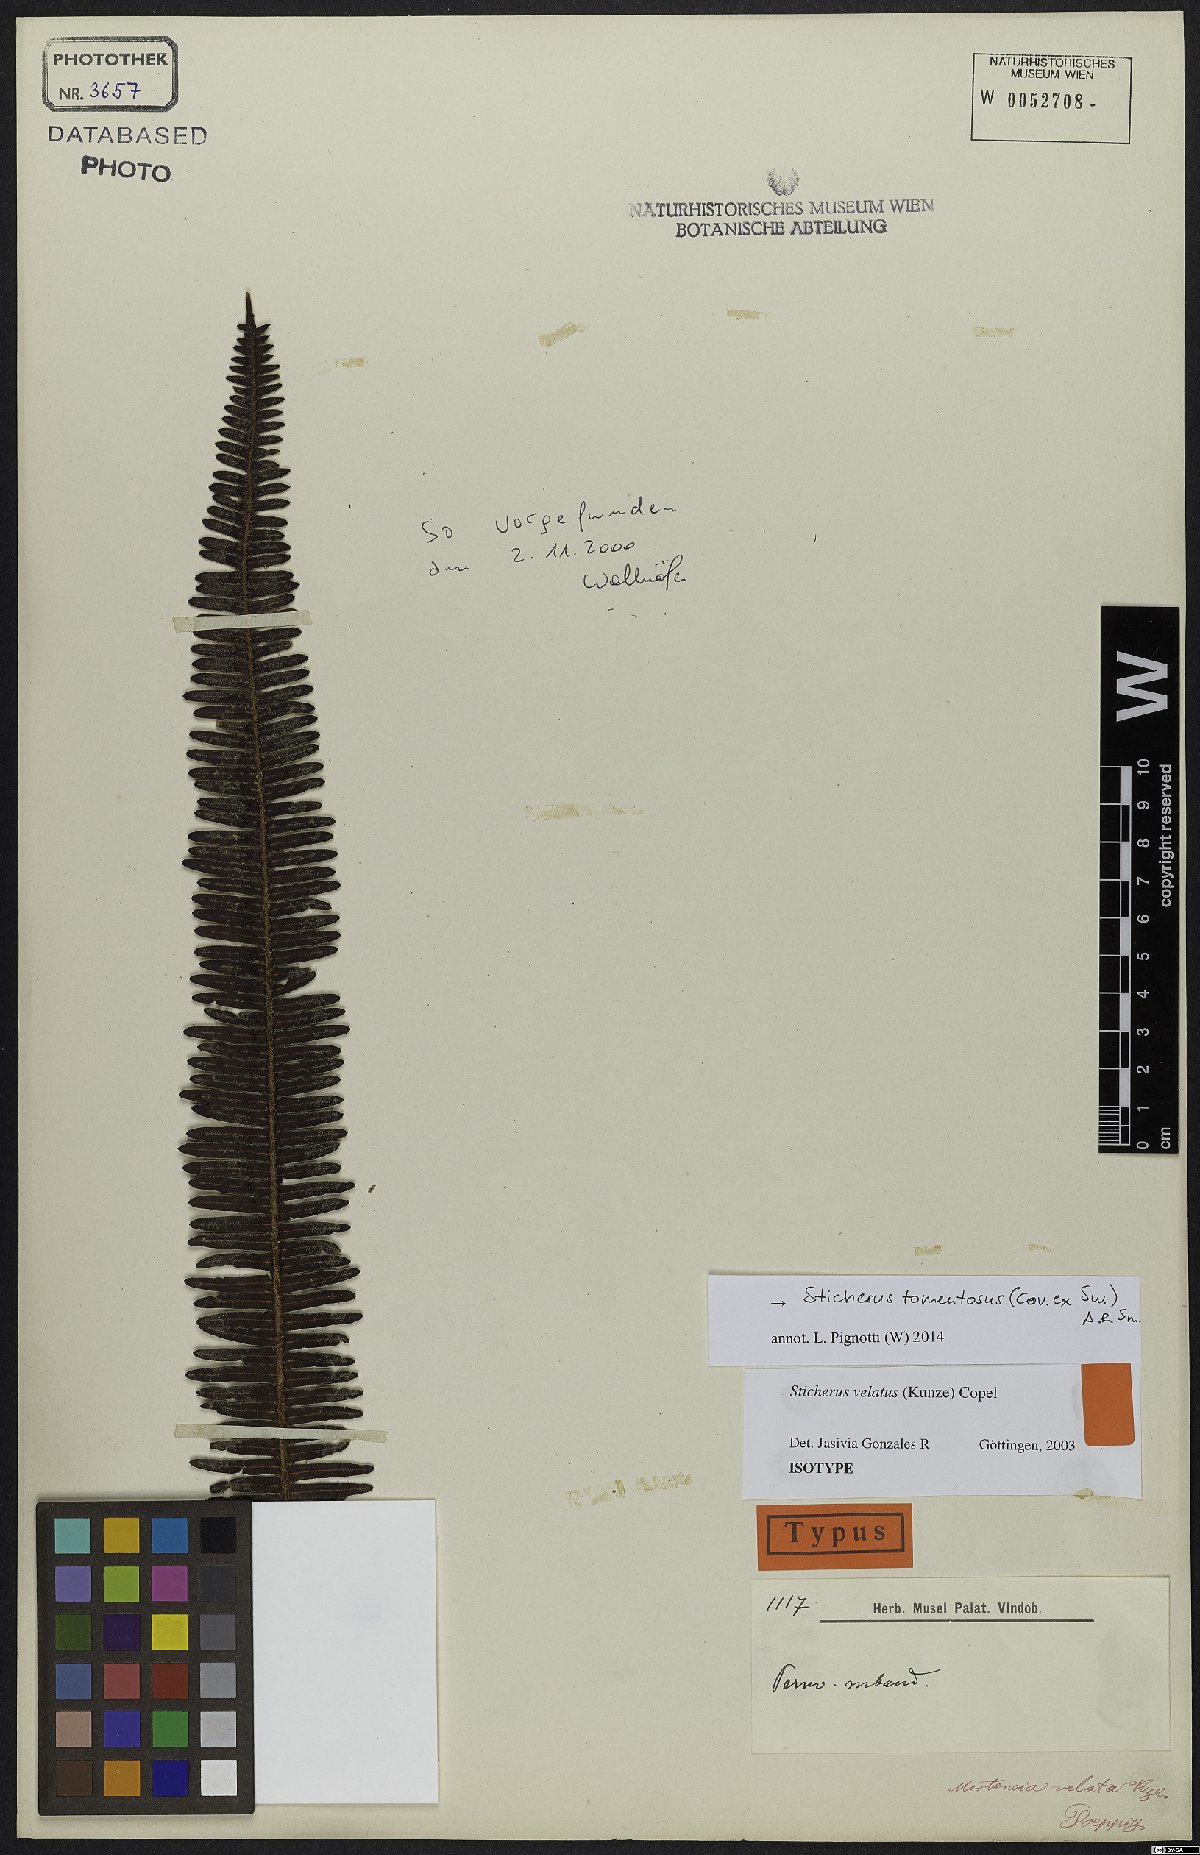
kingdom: Plantae
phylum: Tracheophyta
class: Polypodiopsida
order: Gleicheniales
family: Gleicheniaceae
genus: Sticherus
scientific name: Sticherus tomentosus
